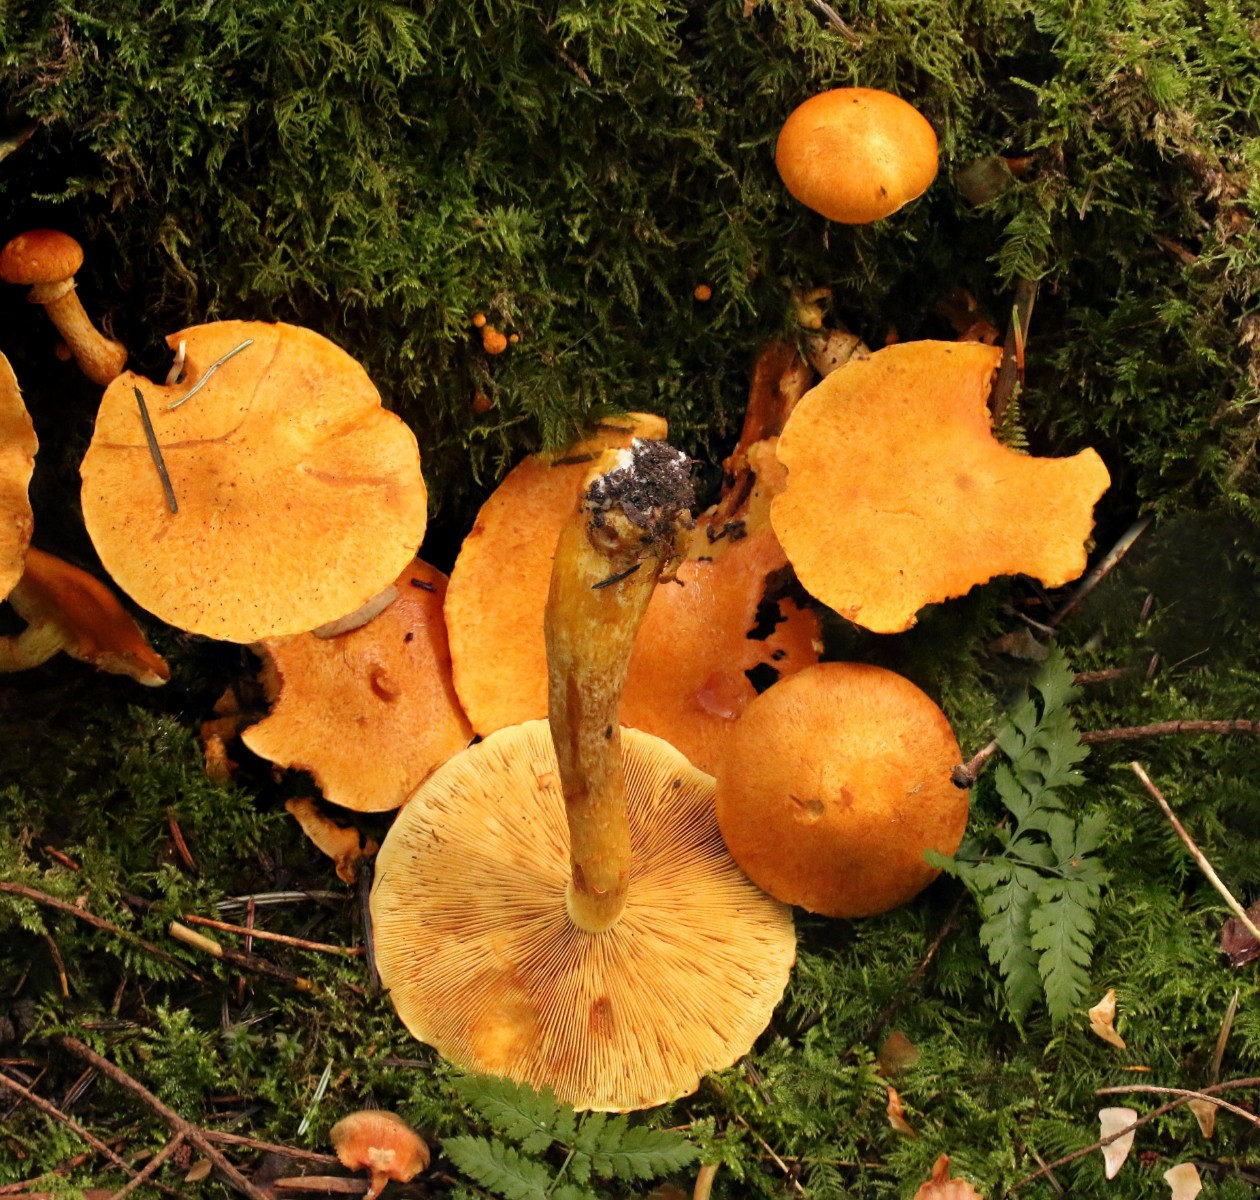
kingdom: Fungi
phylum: Basidiomycota
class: Agaricomycetes
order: Agaricales
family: Hymenogastraceae
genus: Gymnopilus
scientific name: Gymnopilus spectabilis
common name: fibret flammehat
